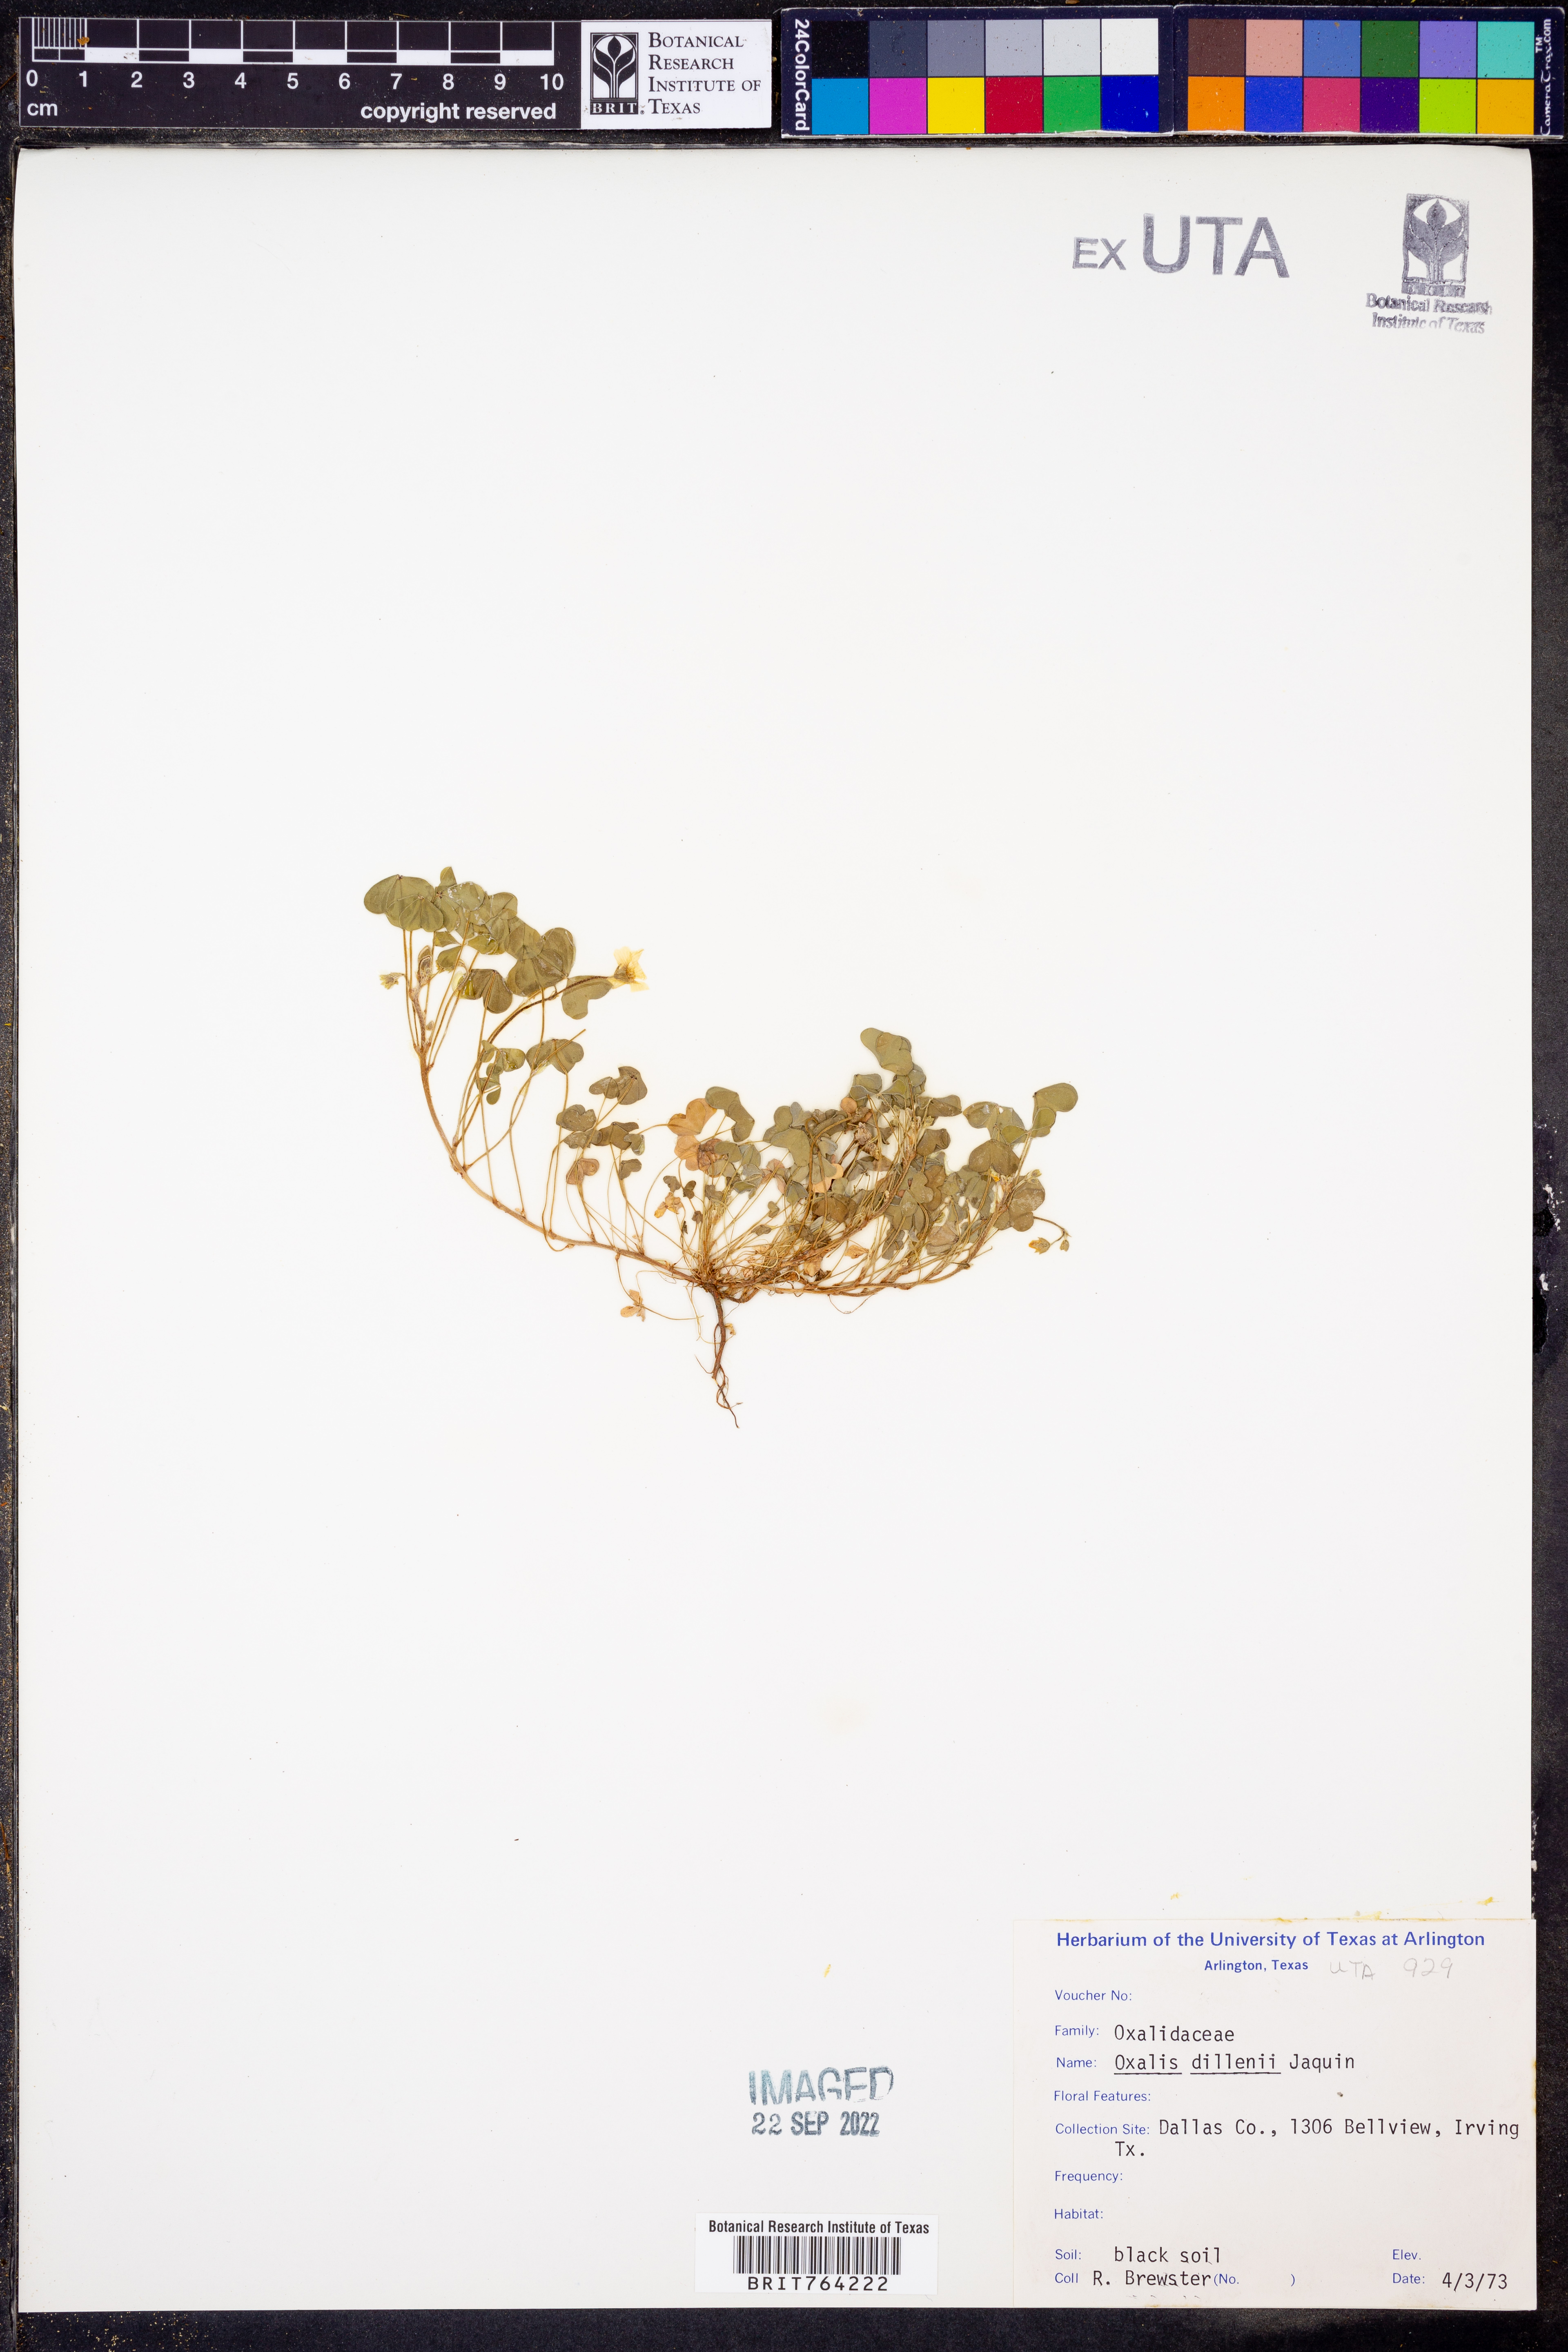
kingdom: Plantae
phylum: Tracheophyta
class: Magnoliopsida
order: Oxalidales
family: Oxalidaceae
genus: Oxalis
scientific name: Oxalis dillenii
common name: Sussex yellow-sorrel
